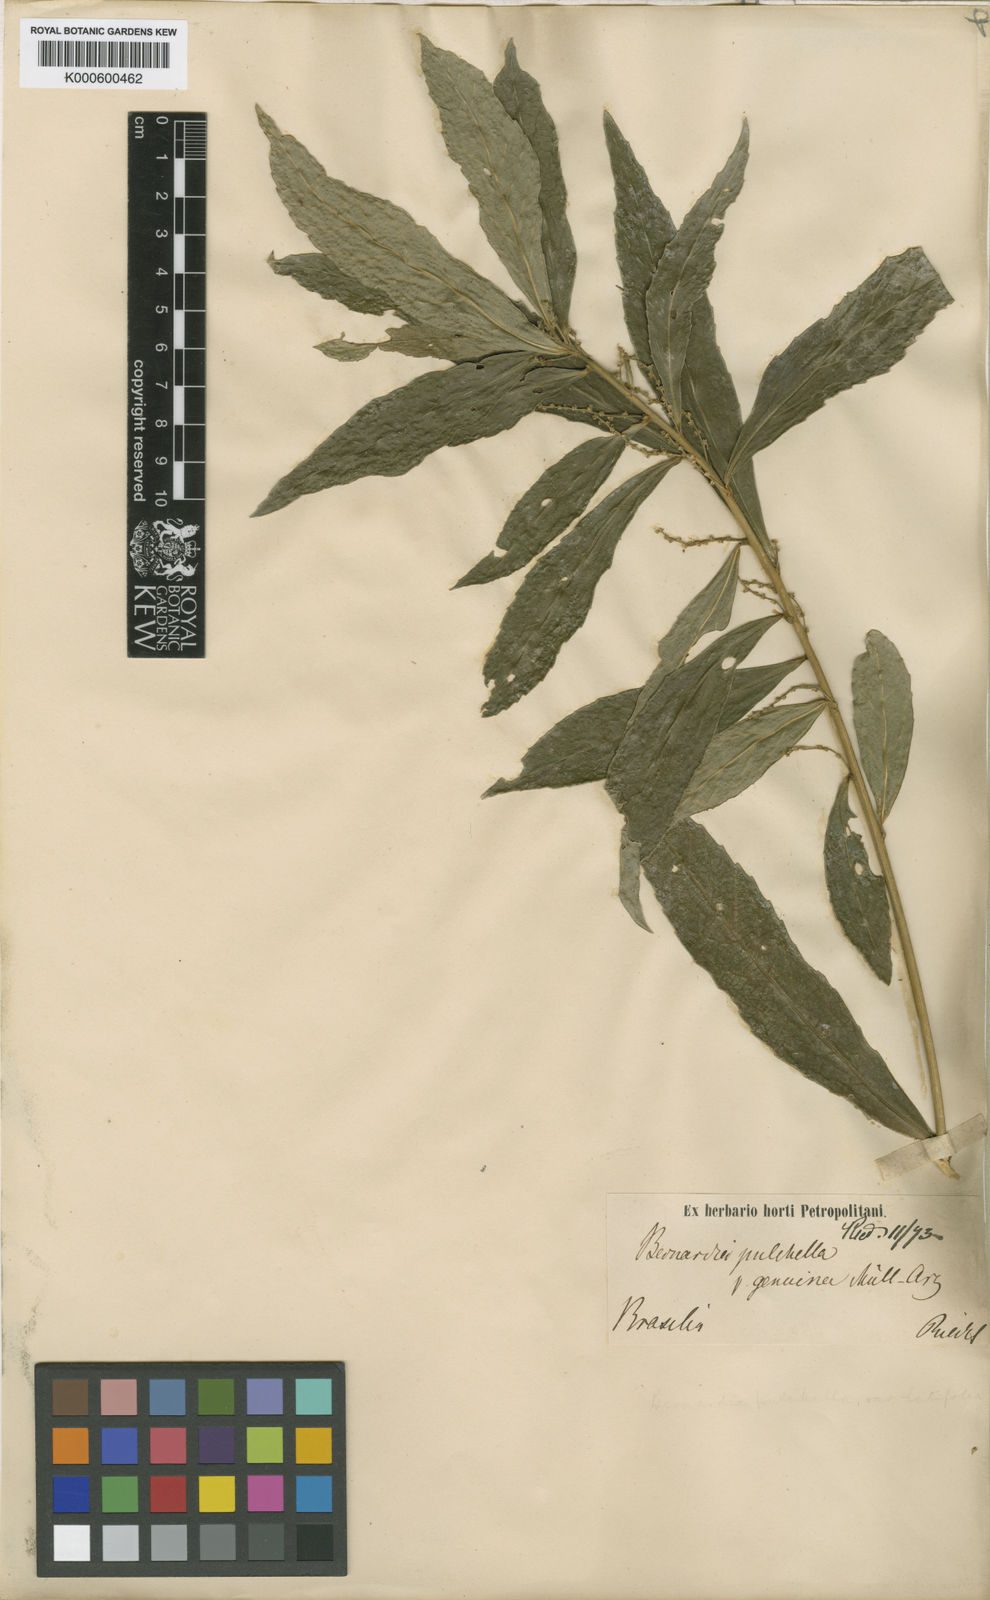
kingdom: Plantae
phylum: Tracheophyta
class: Magnoliopsida
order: Malpighiales
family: Euphorbiaceae
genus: Bernardia
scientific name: Bernardia
